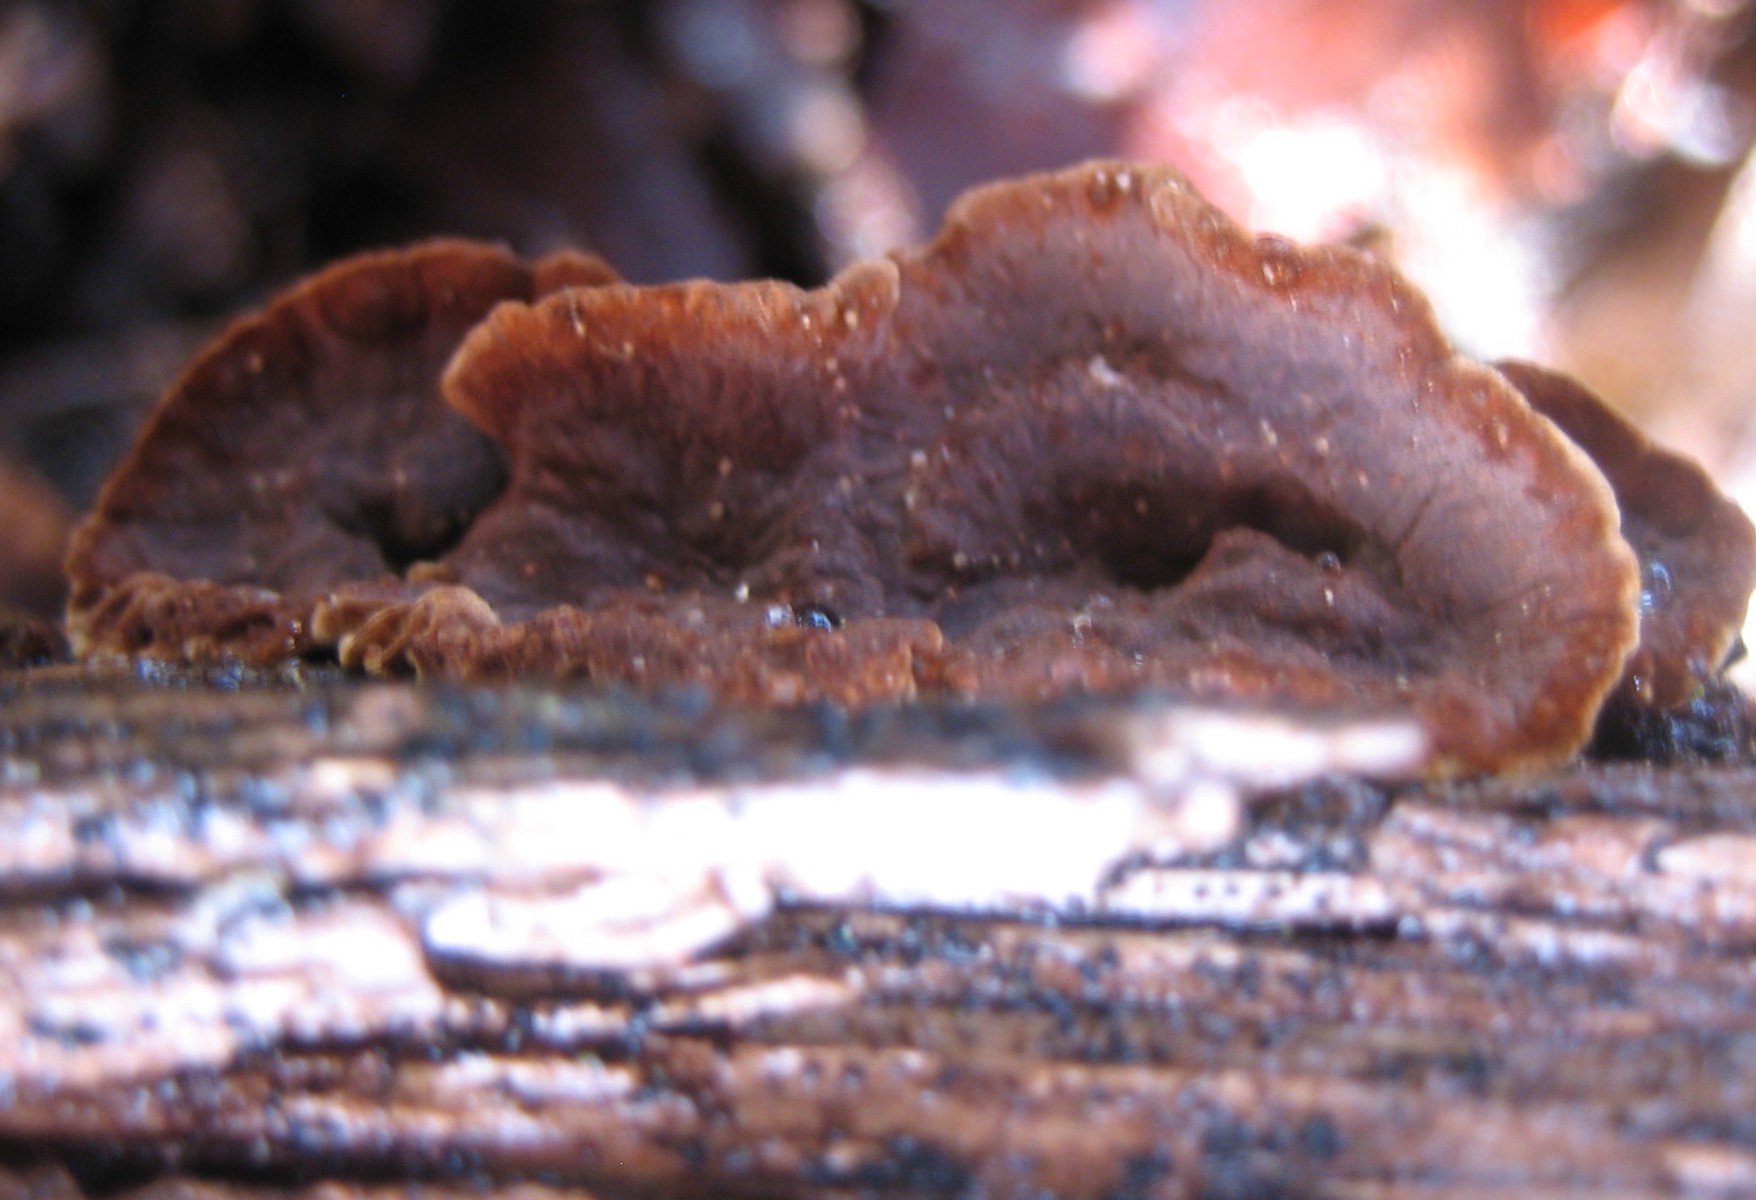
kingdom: Fungi
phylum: Basidiomycota
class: Agaricomycetes
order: Hymenochaetales
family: Hymenochaetaceae
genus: Hymenochaete
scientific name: Hymenochaete rubiginosa
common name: stiv ruslædersvamp
